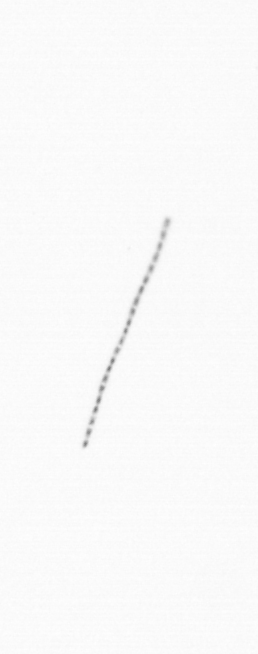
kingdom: Chromista
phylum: Ochrophyta
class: Bacillariophyceae
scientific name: Bacillariophyceae
